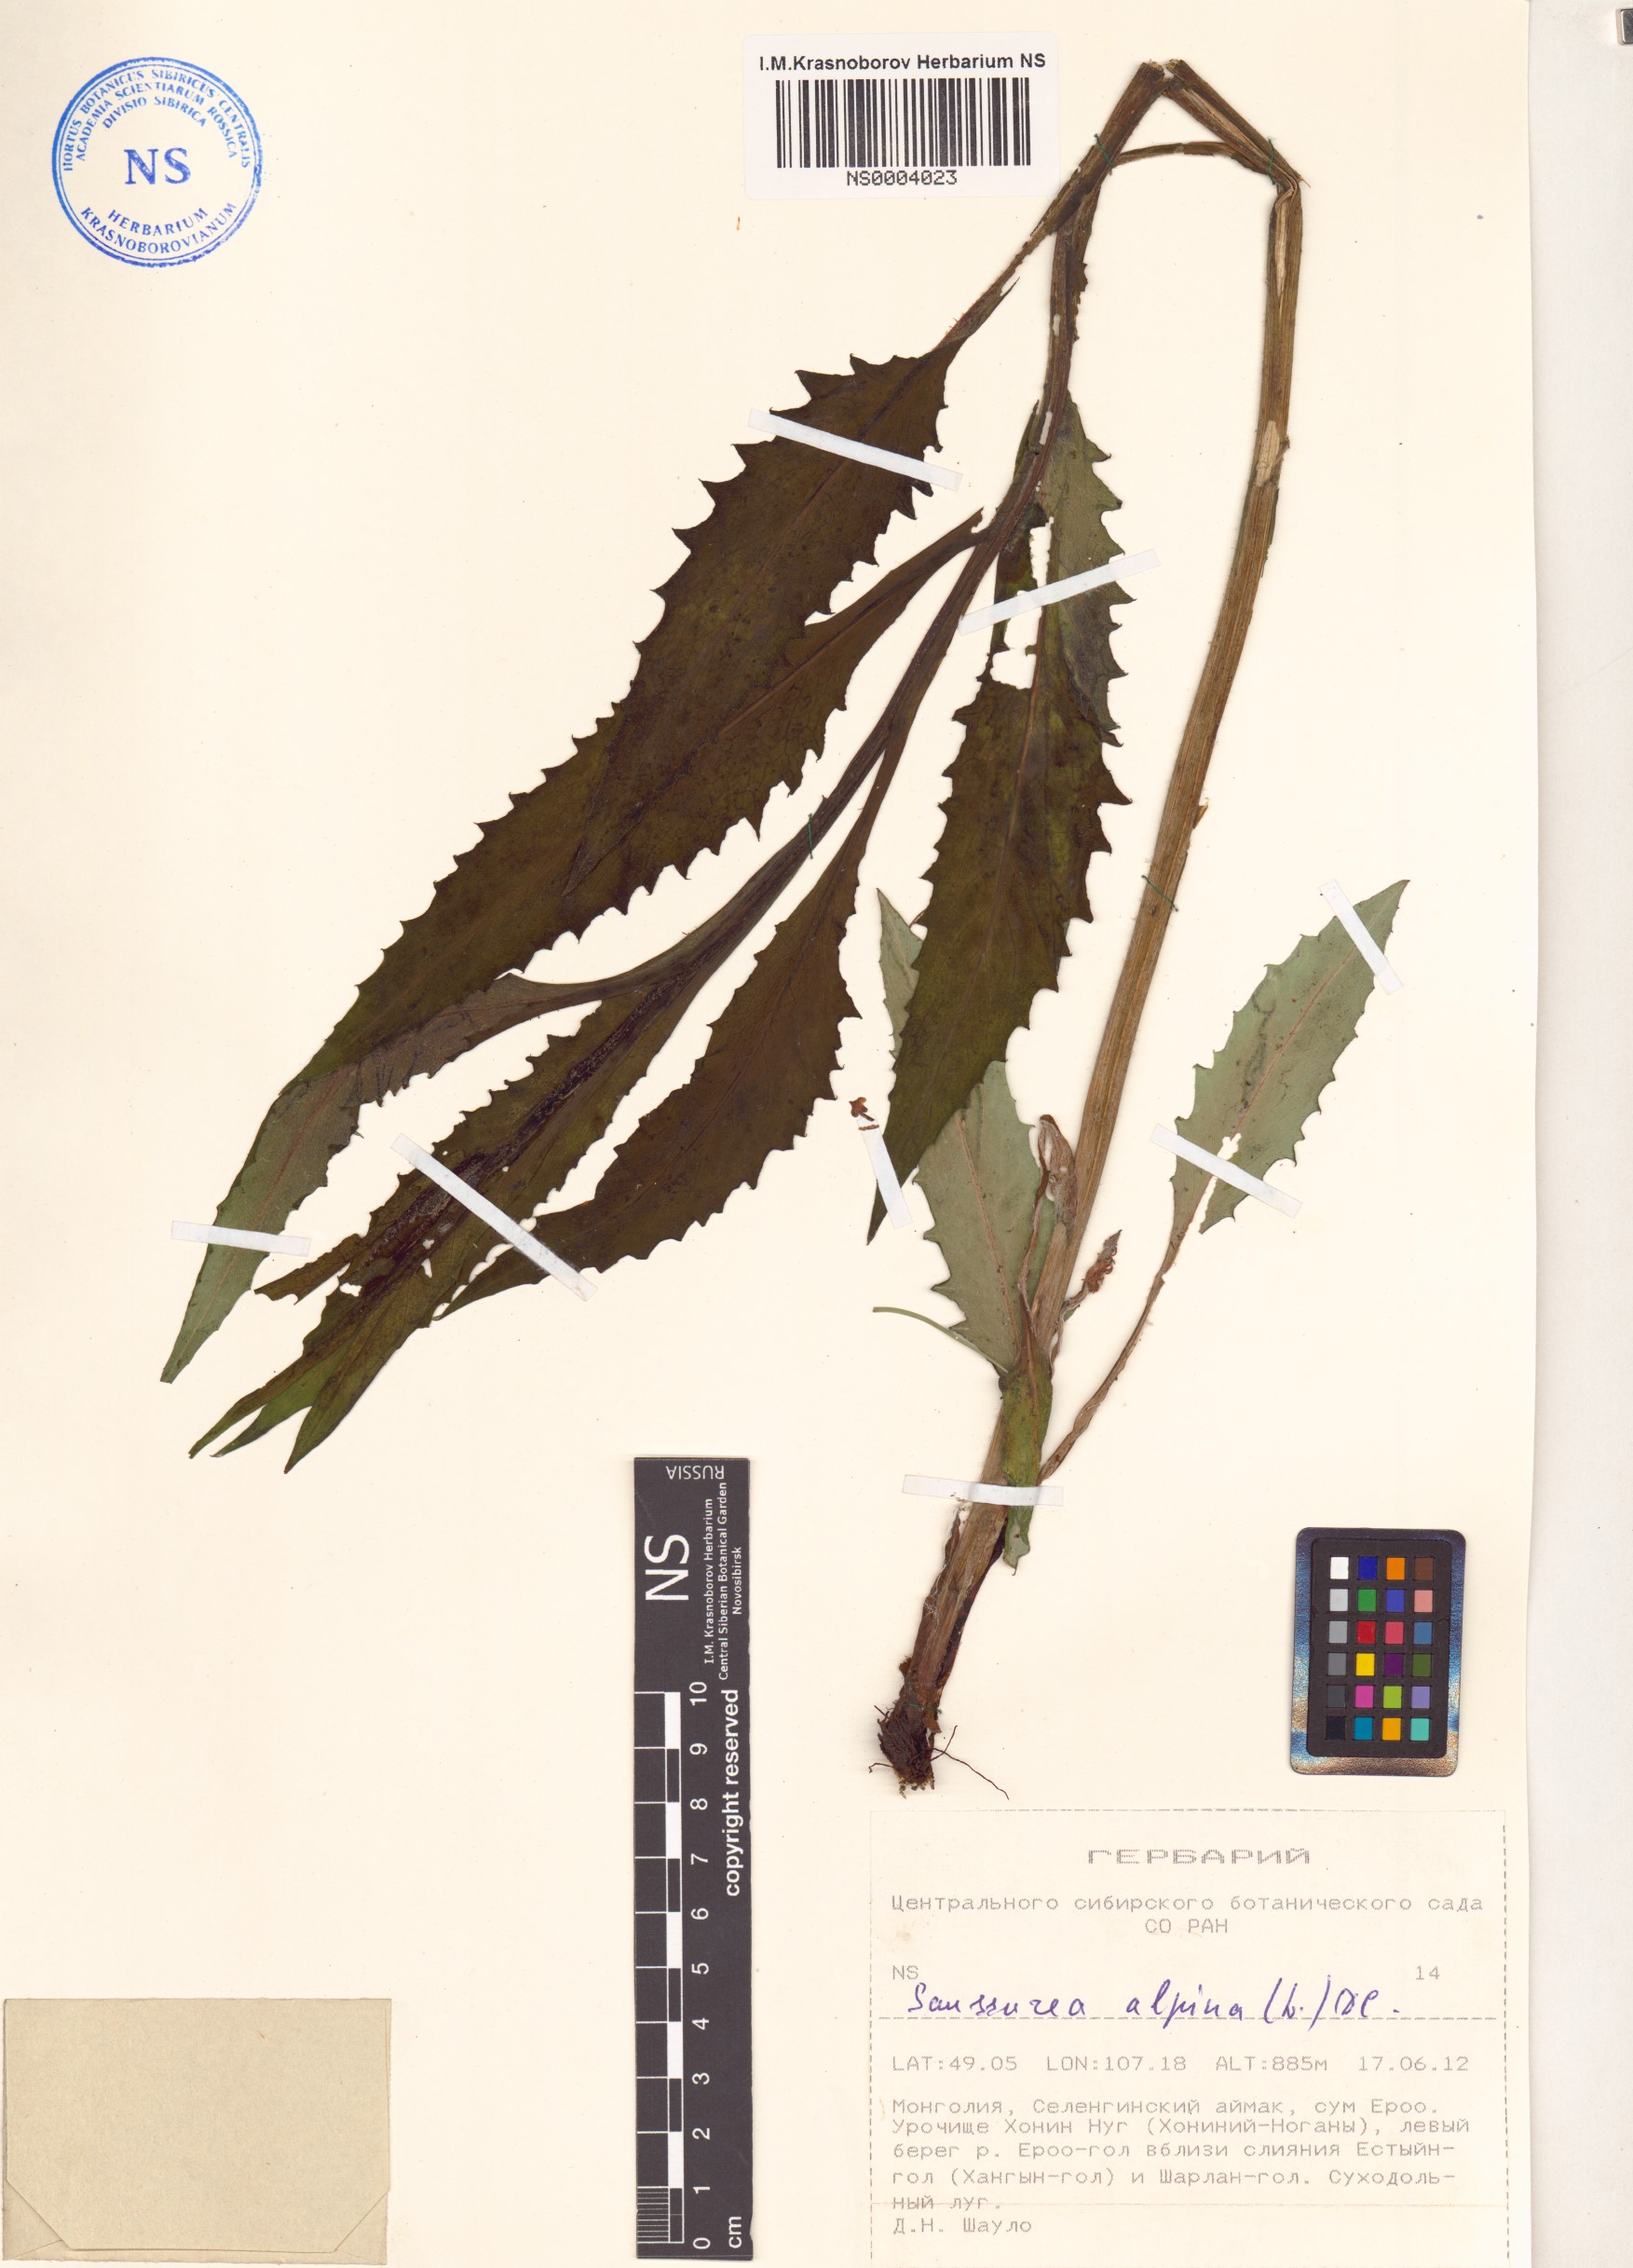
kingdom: Plantae
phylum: Tracheophyta
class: Magnoliopsida
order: Asterales
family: Asteraceae
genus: Saussurea
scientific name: Saussurea alpina
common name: Alpine saw-wort
